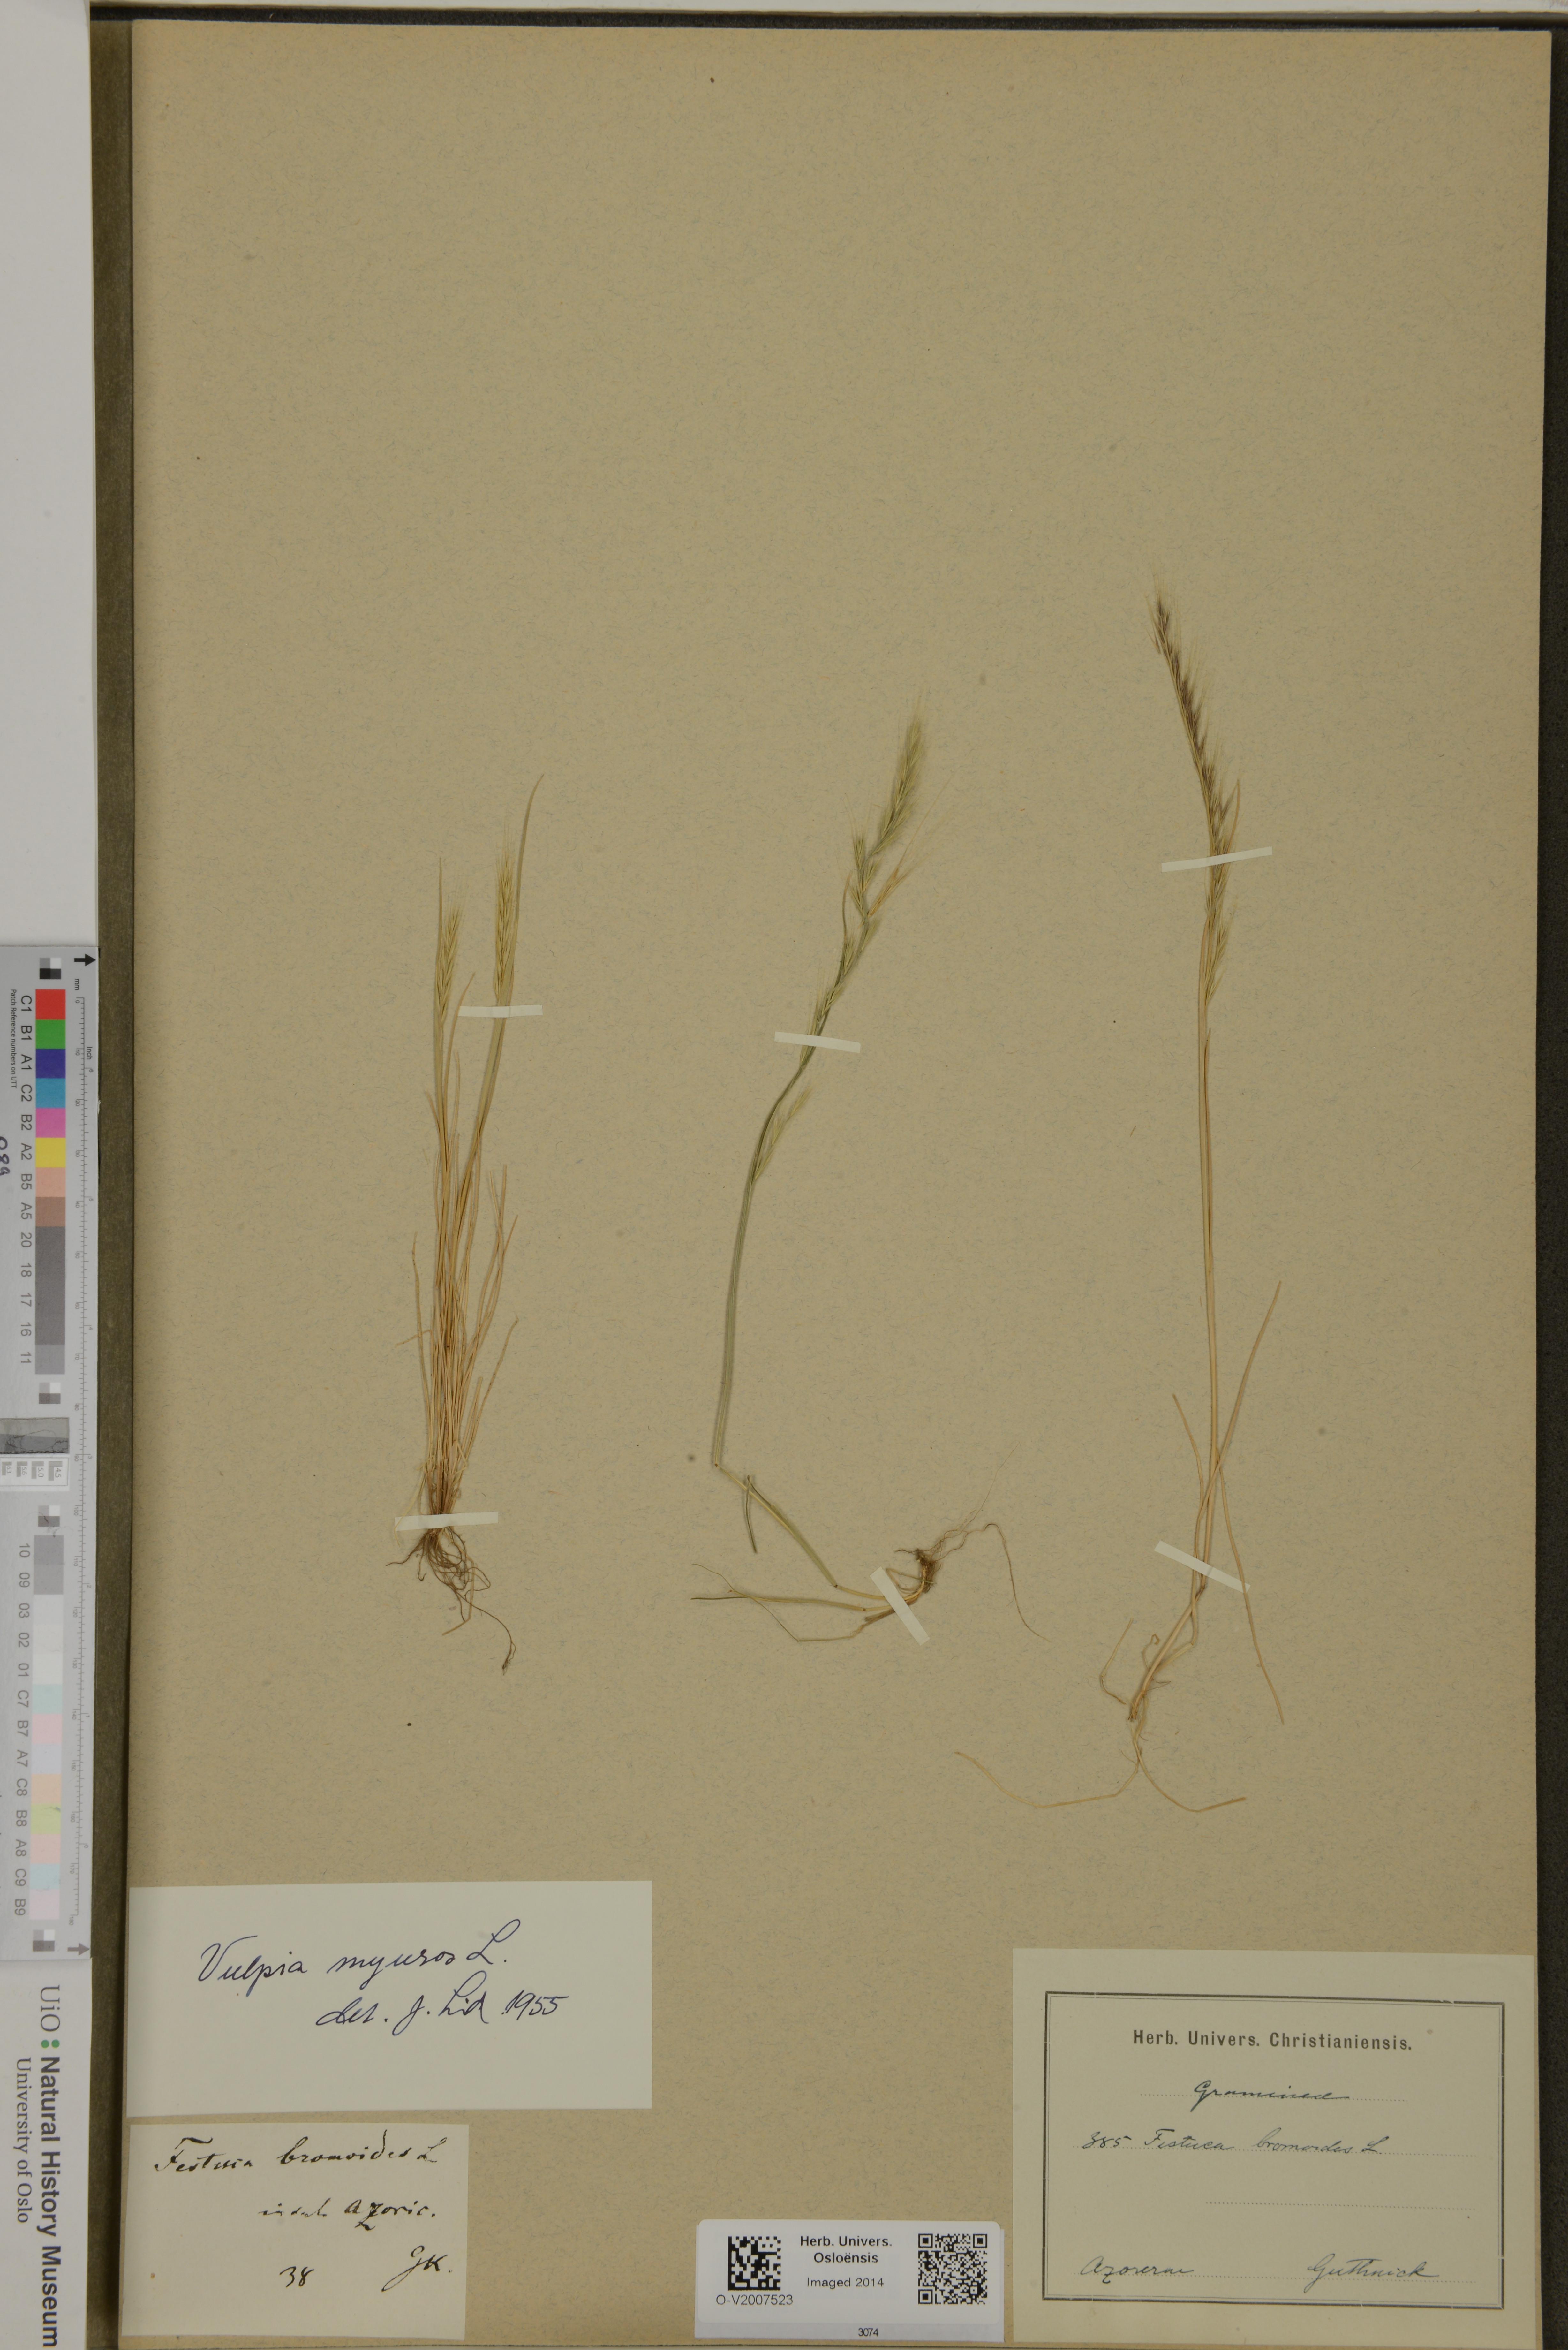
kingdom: Plantae
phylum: Tracheophyta
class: Liliopsida
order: Poales
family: Poaceae
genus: Festuca
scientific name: Festuca myuros
